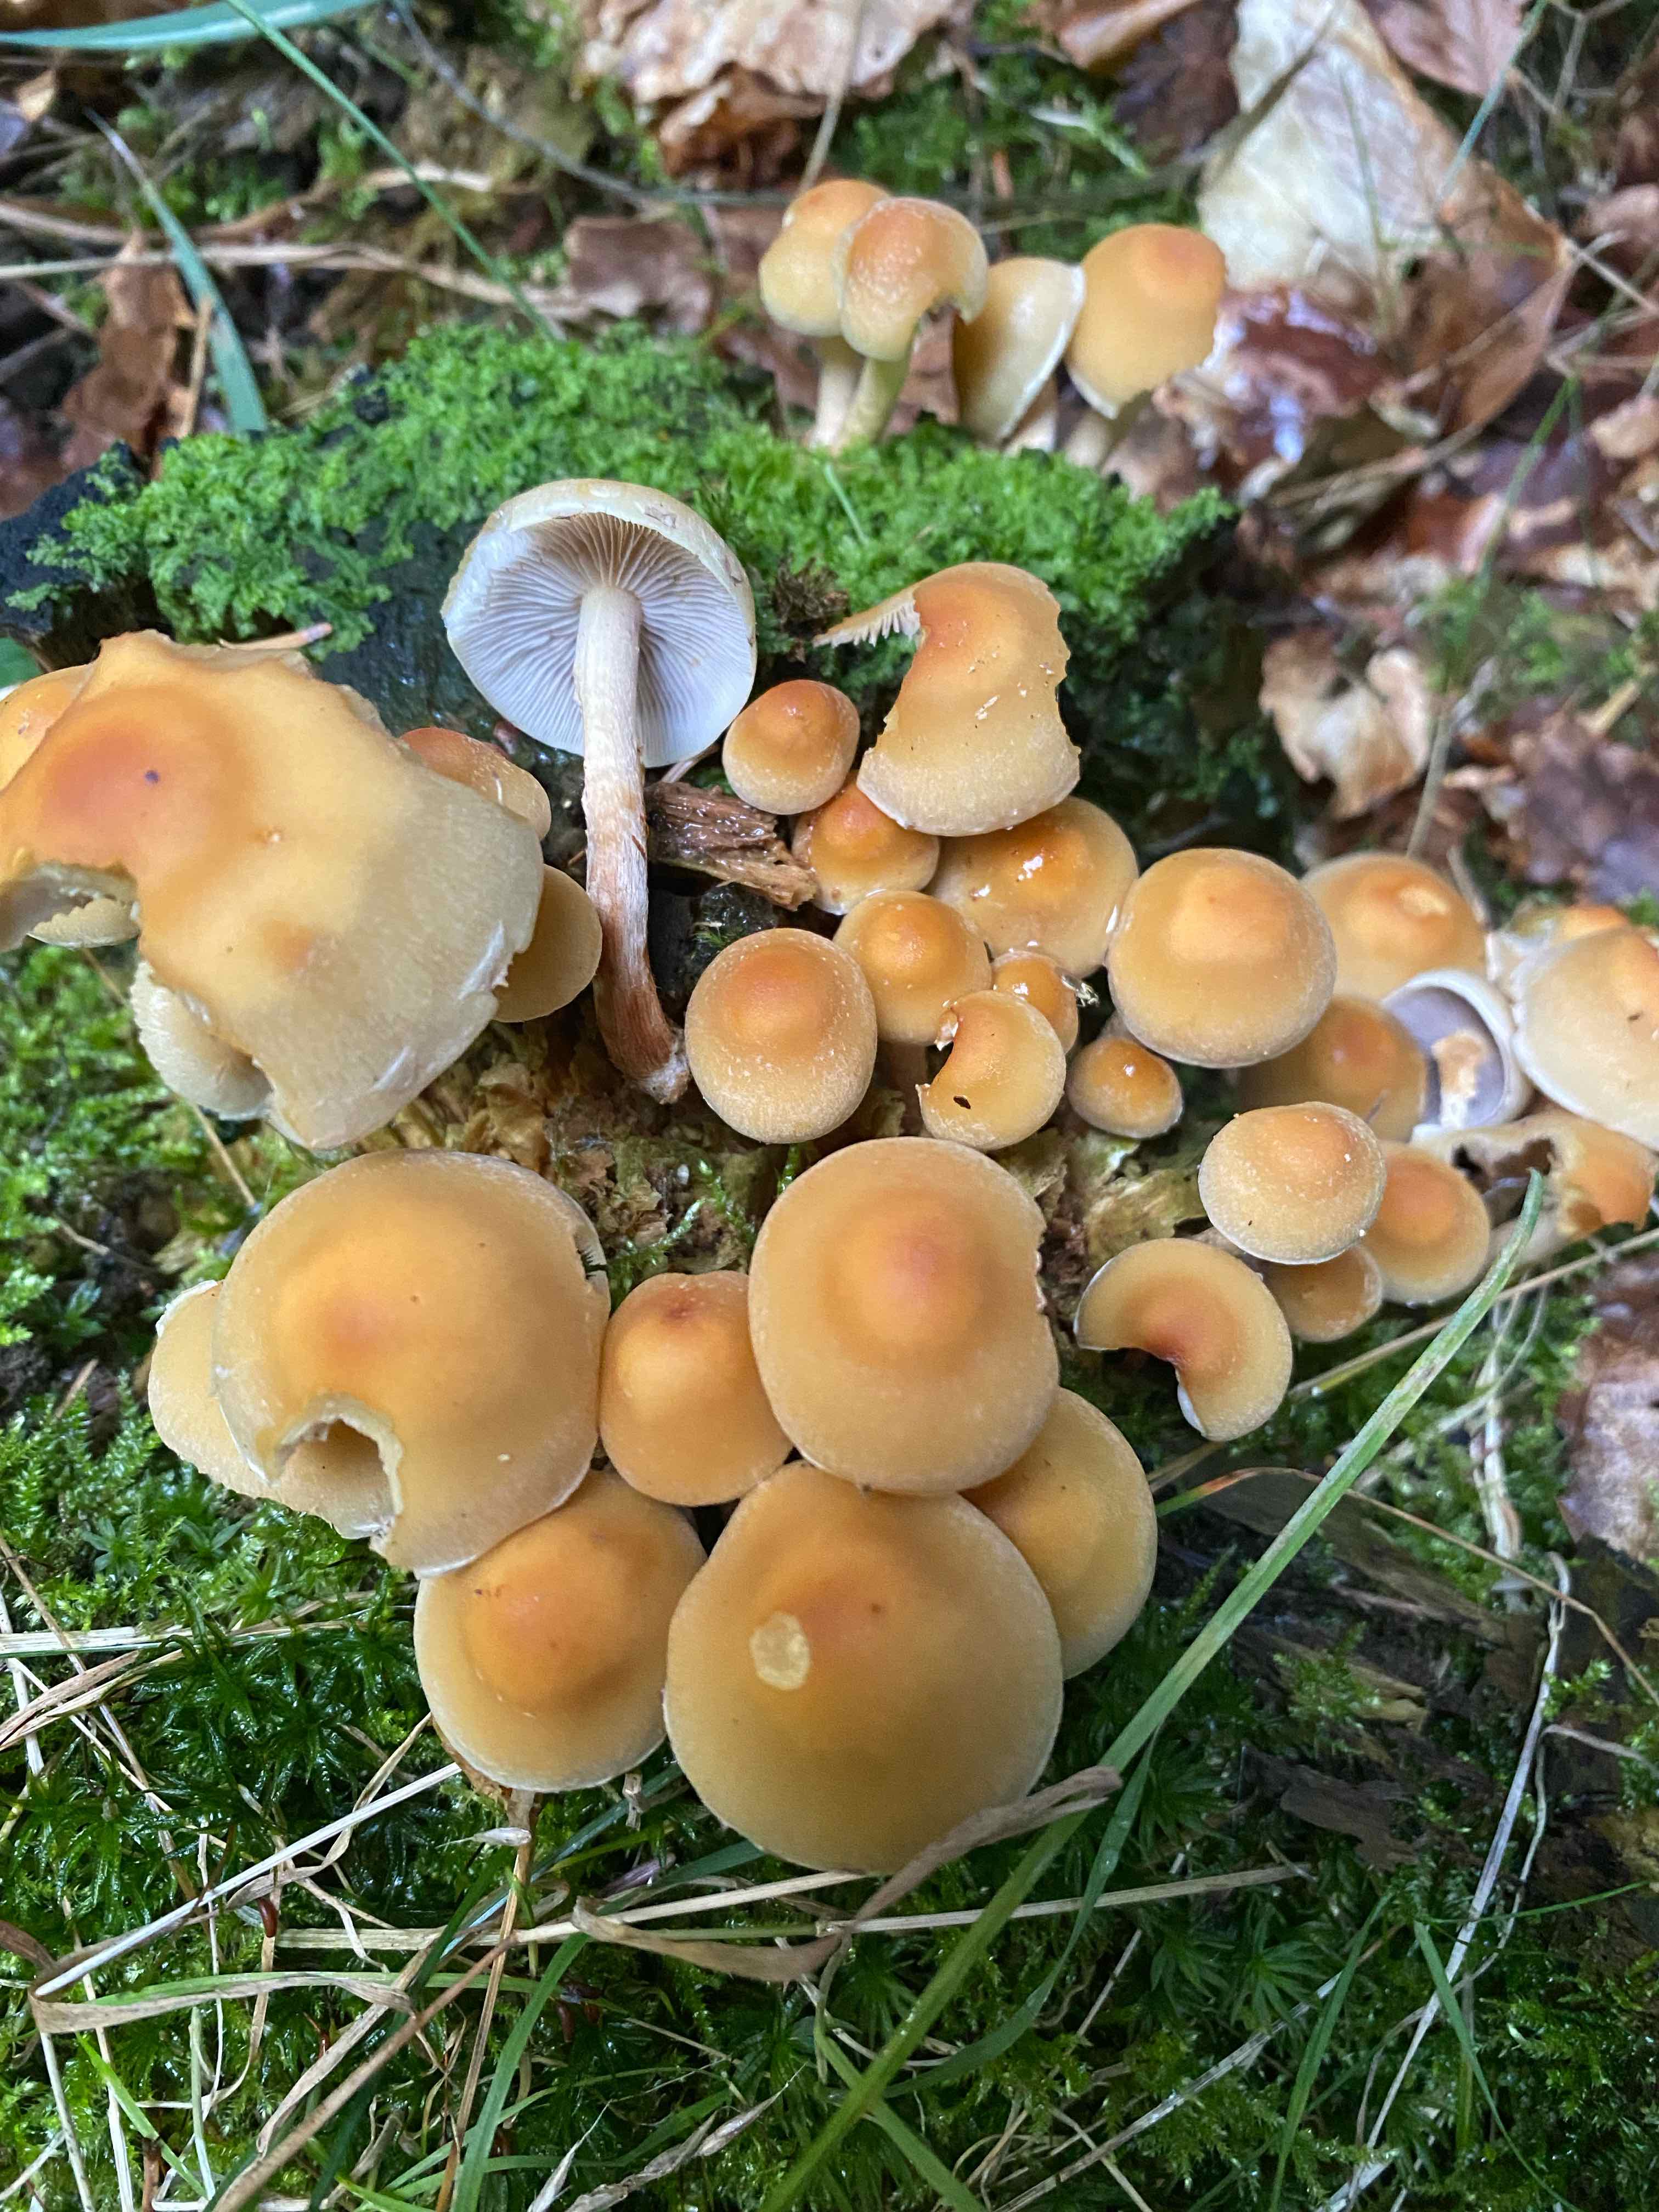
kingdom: Fungi
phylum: Basidiomycota
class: Agaricomycetes
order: Agaricales
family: Strophariaceae
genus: Hypholoma
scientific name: Hypholoma capnoides
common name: gran-svovlhat
